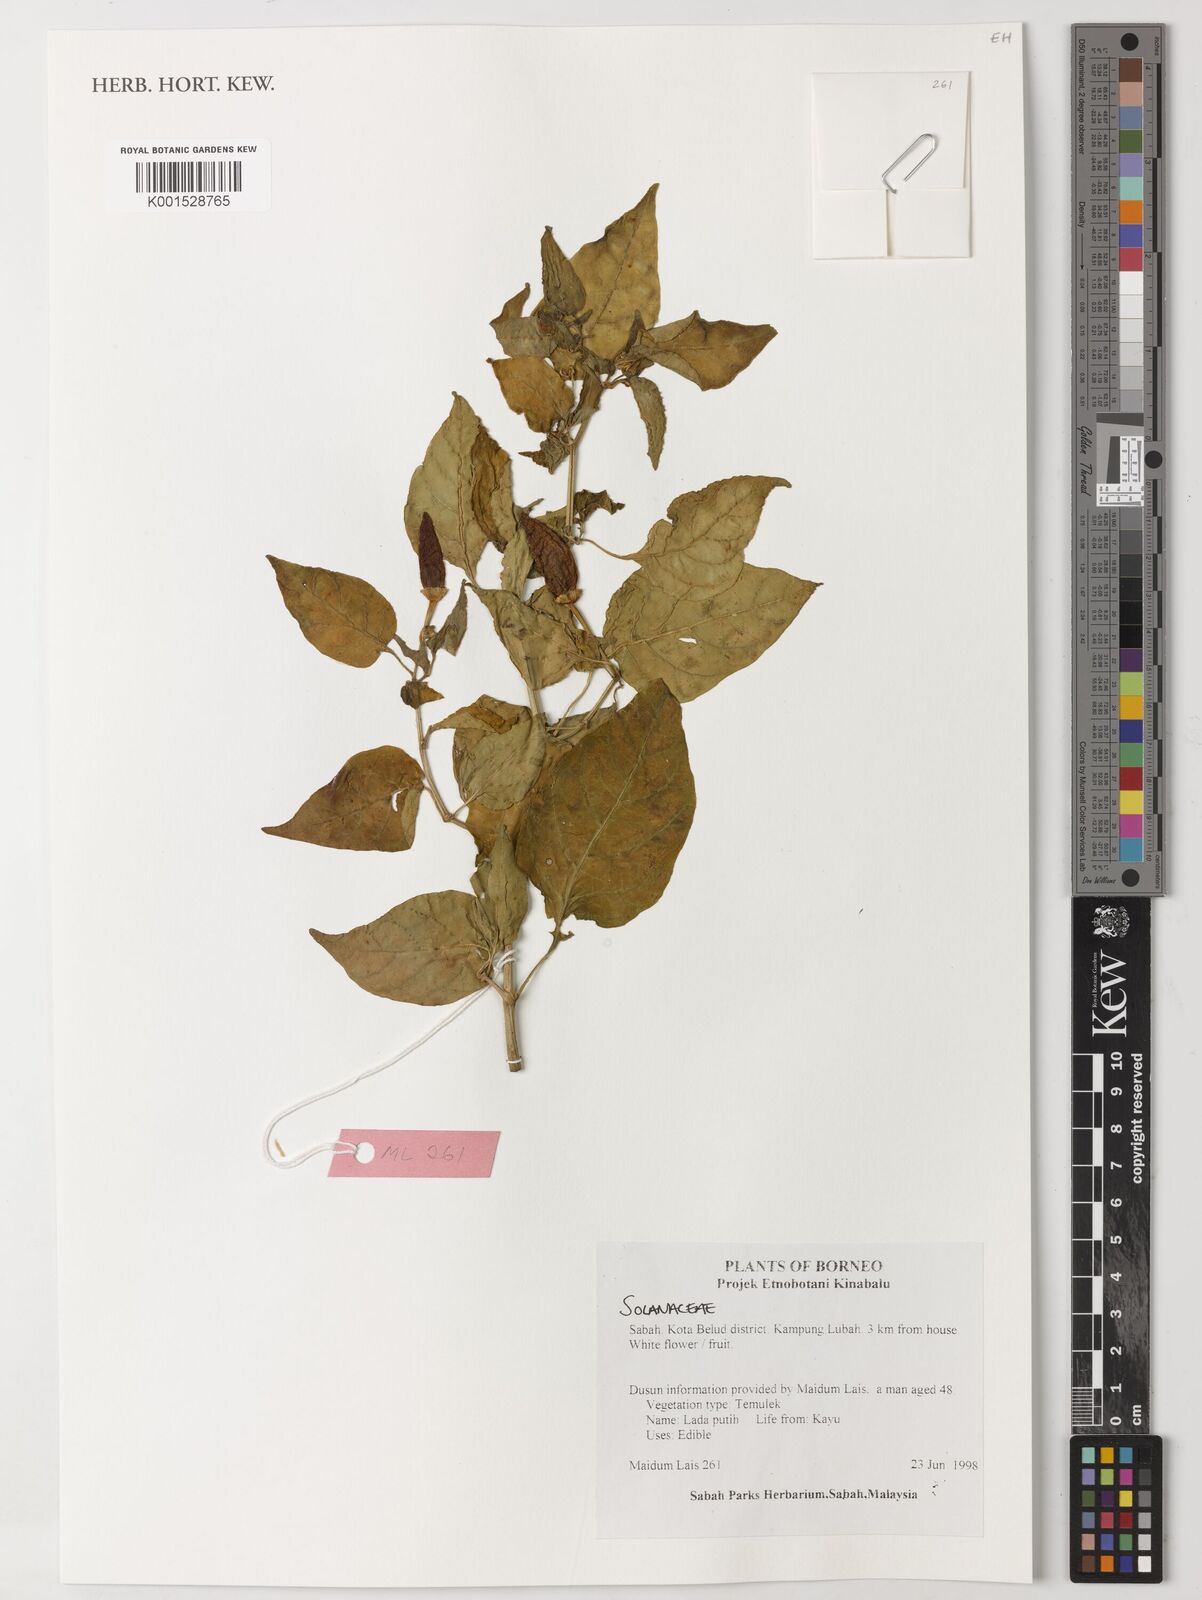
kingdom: Plantae
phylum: Tracheophyta
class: Magnoliopsida
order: Solanales
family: Solanaceae
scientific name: Solanaceae
